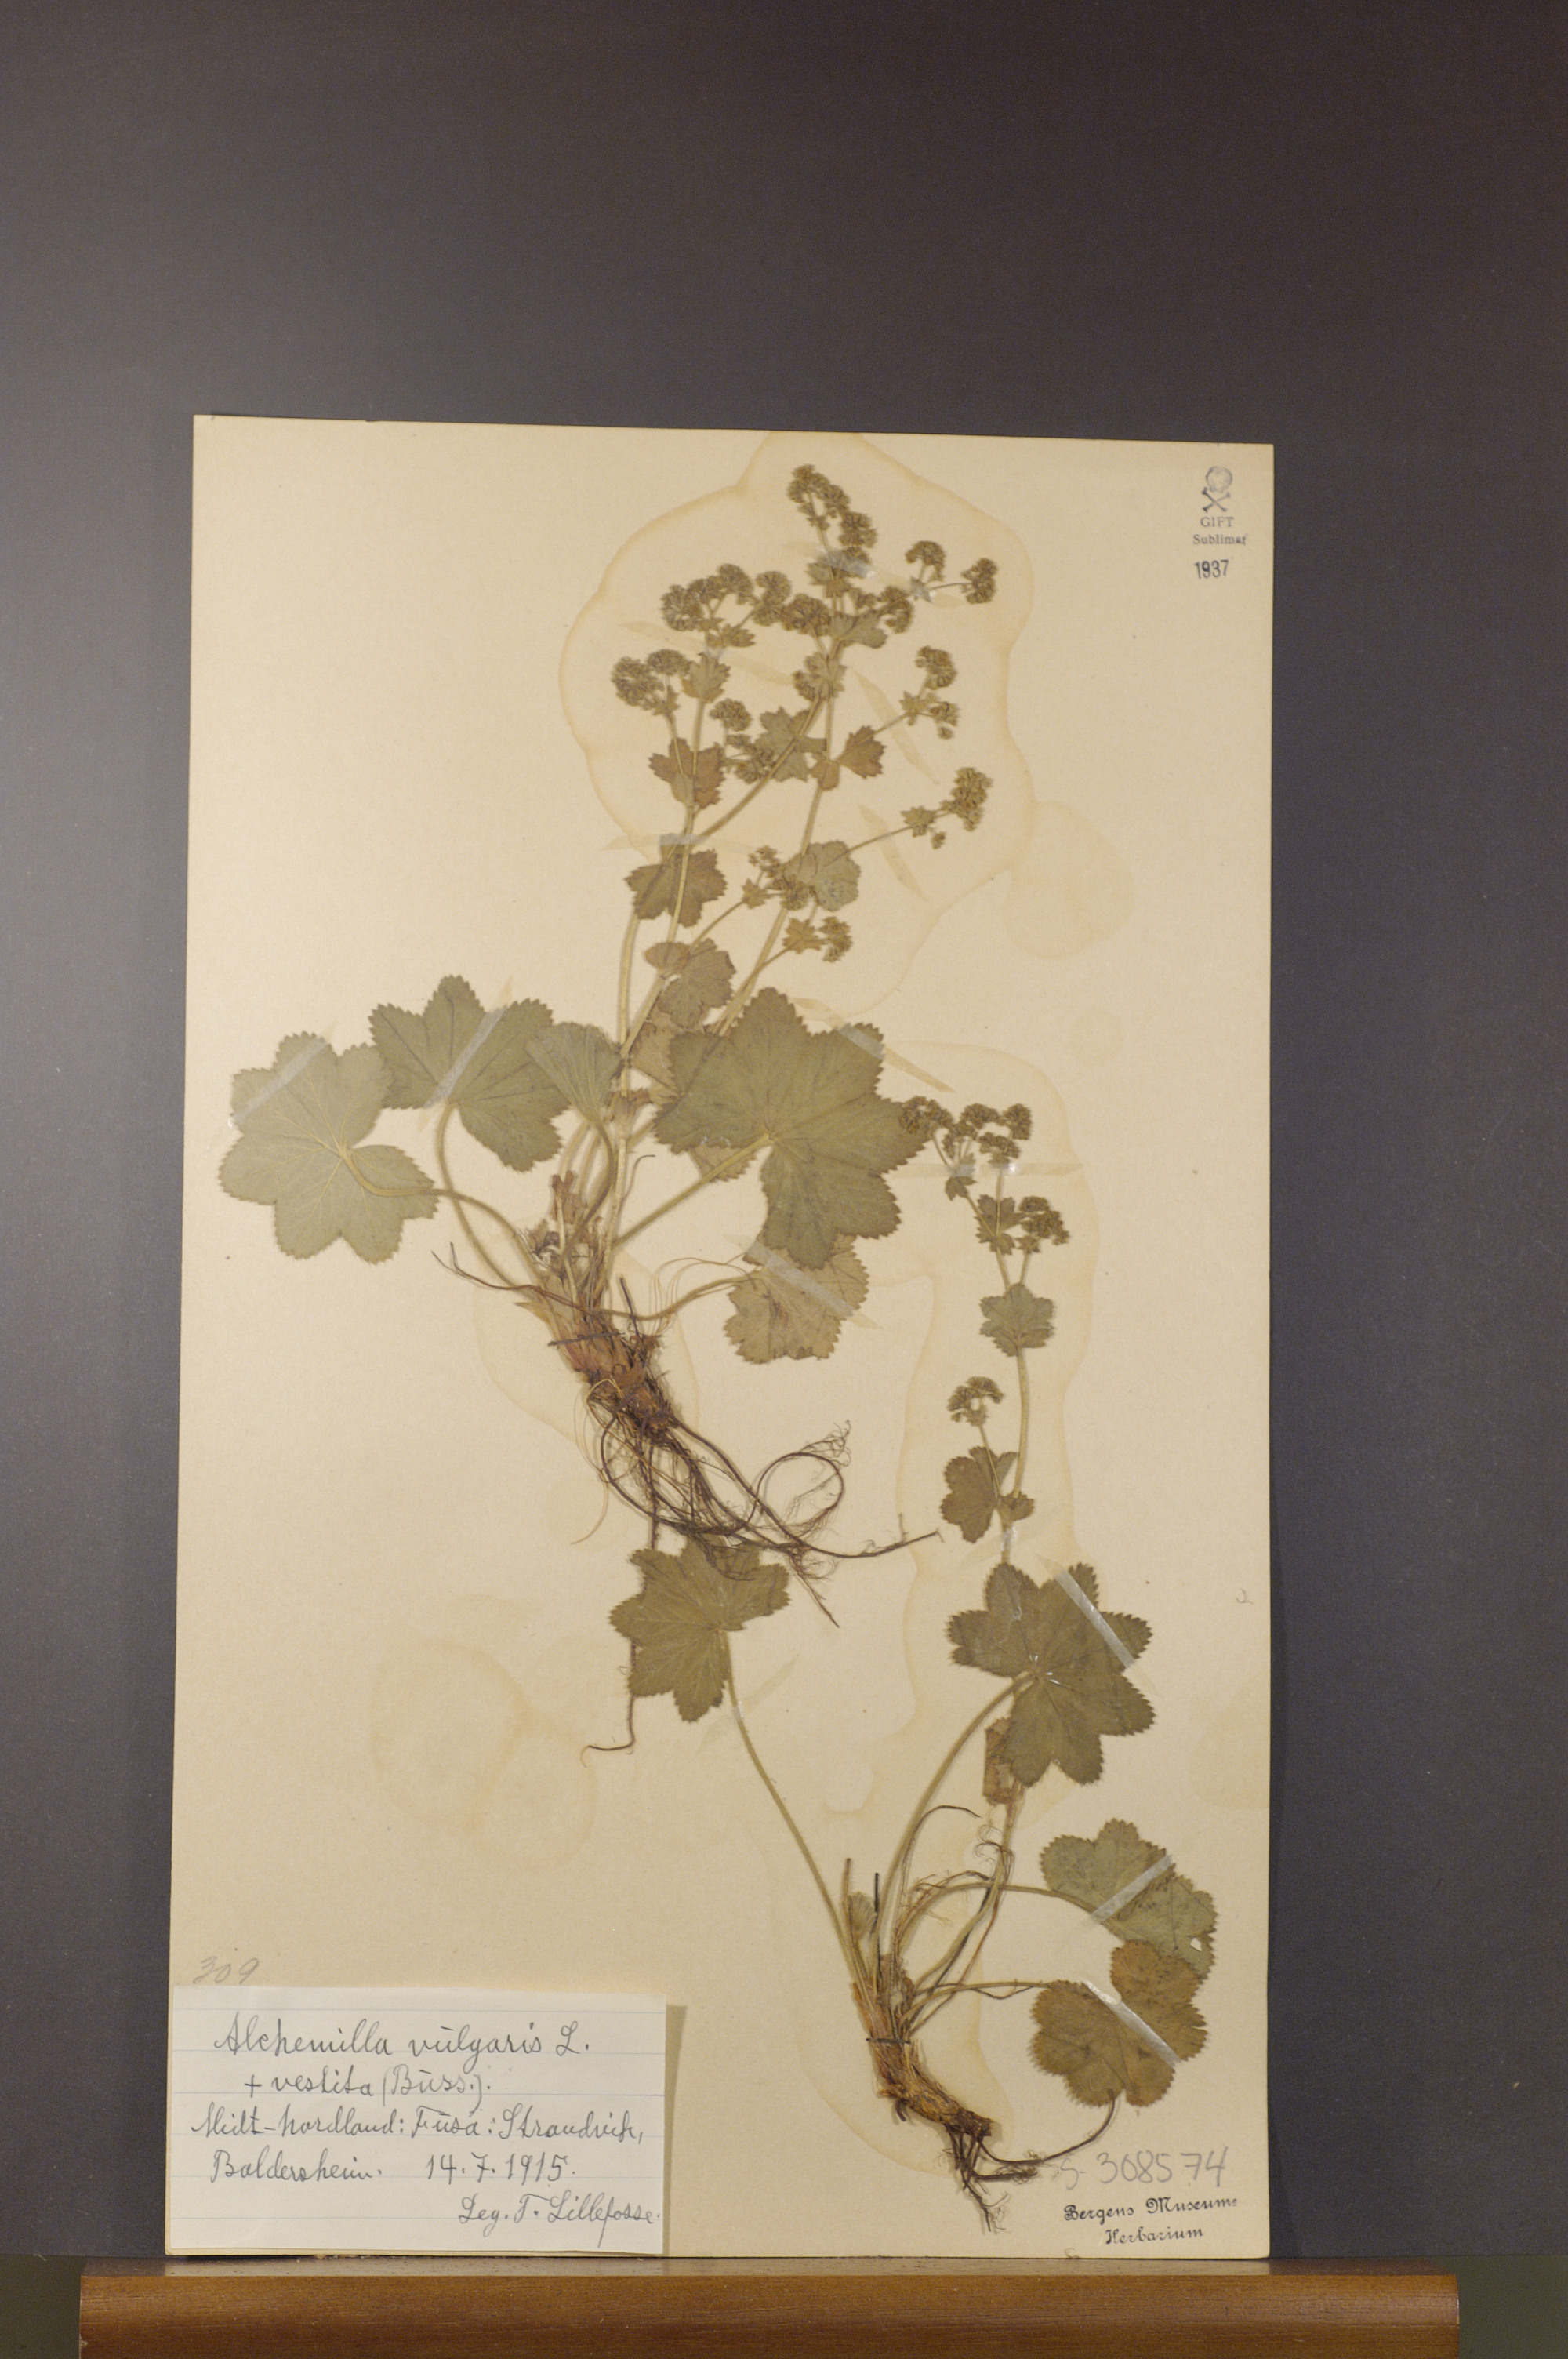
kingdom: Plantae
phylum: Tracheophyta
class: Magnoliopsida
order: Rosales
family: Rosaceae
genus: Alchemilla
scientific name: Alchemilla filicaulis
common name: Hairy lady's-mantle
